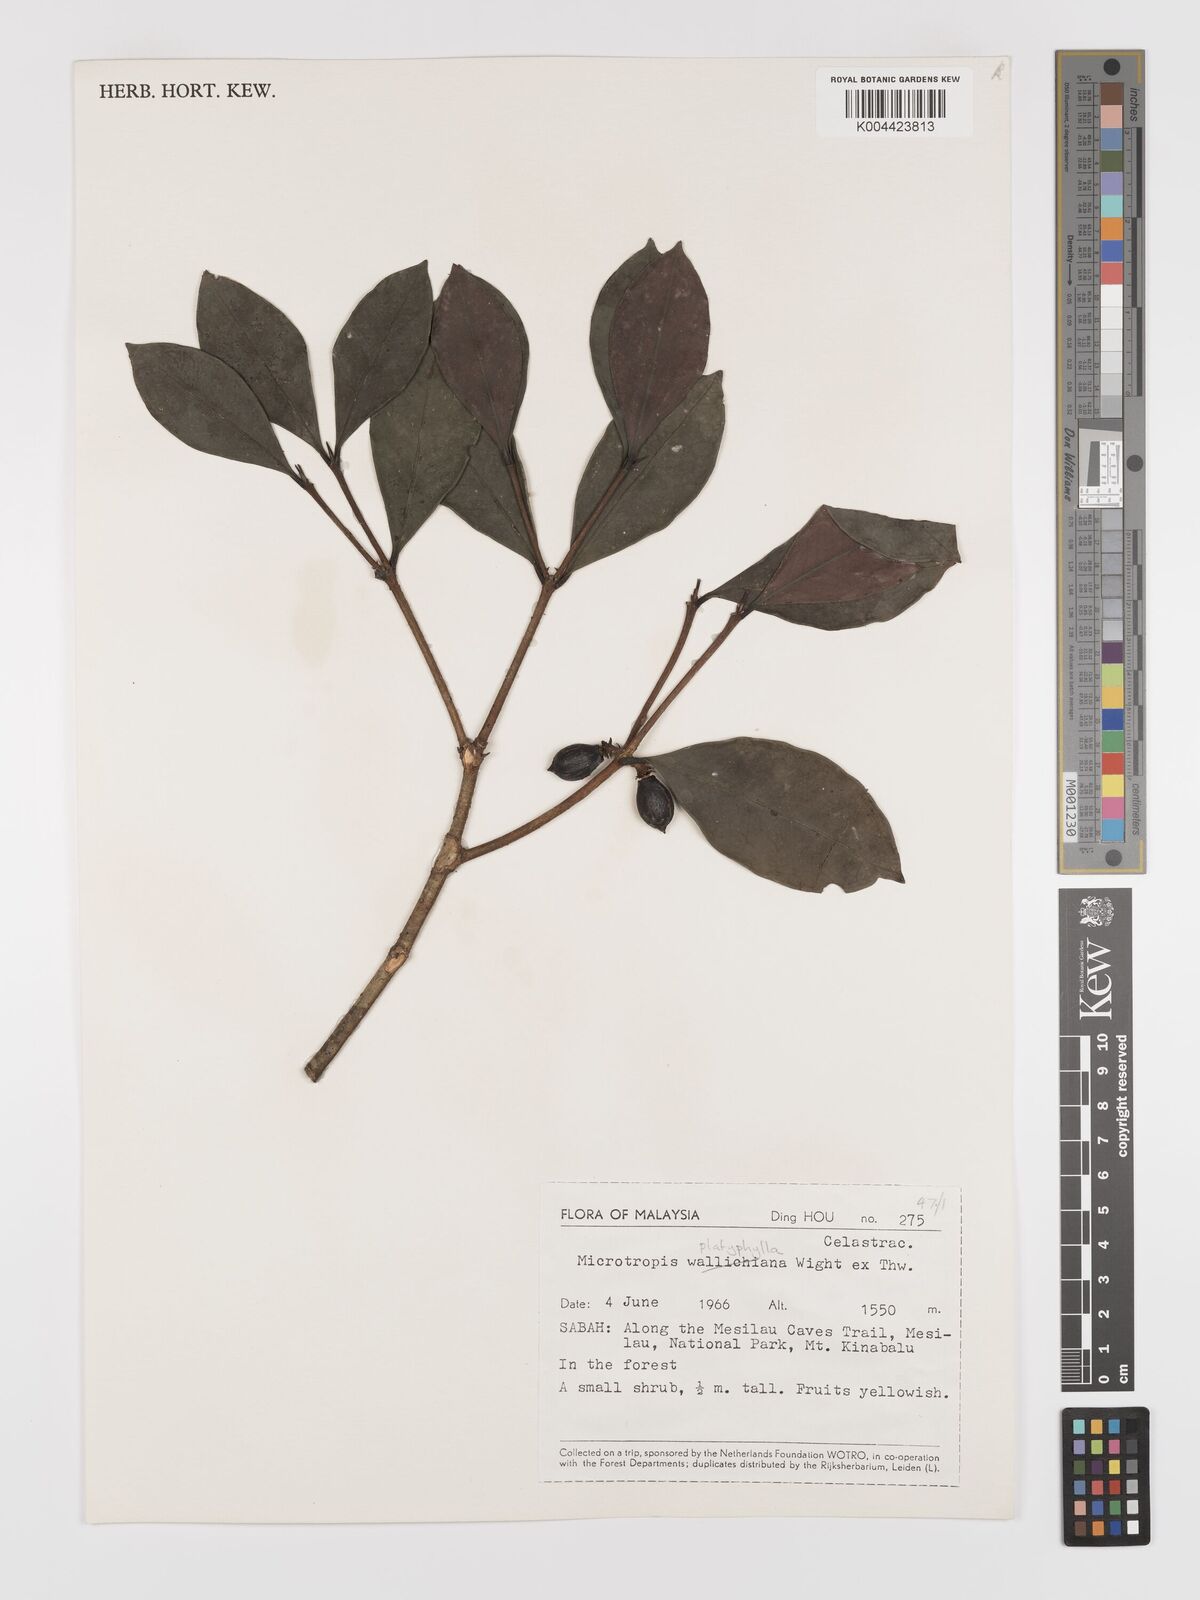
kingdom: Plantae
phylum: Tracheophyta
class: Magnoliopsida
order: Celastrales
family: Celastraceae
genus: Microtropis
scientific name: Microtropis platyphylla
